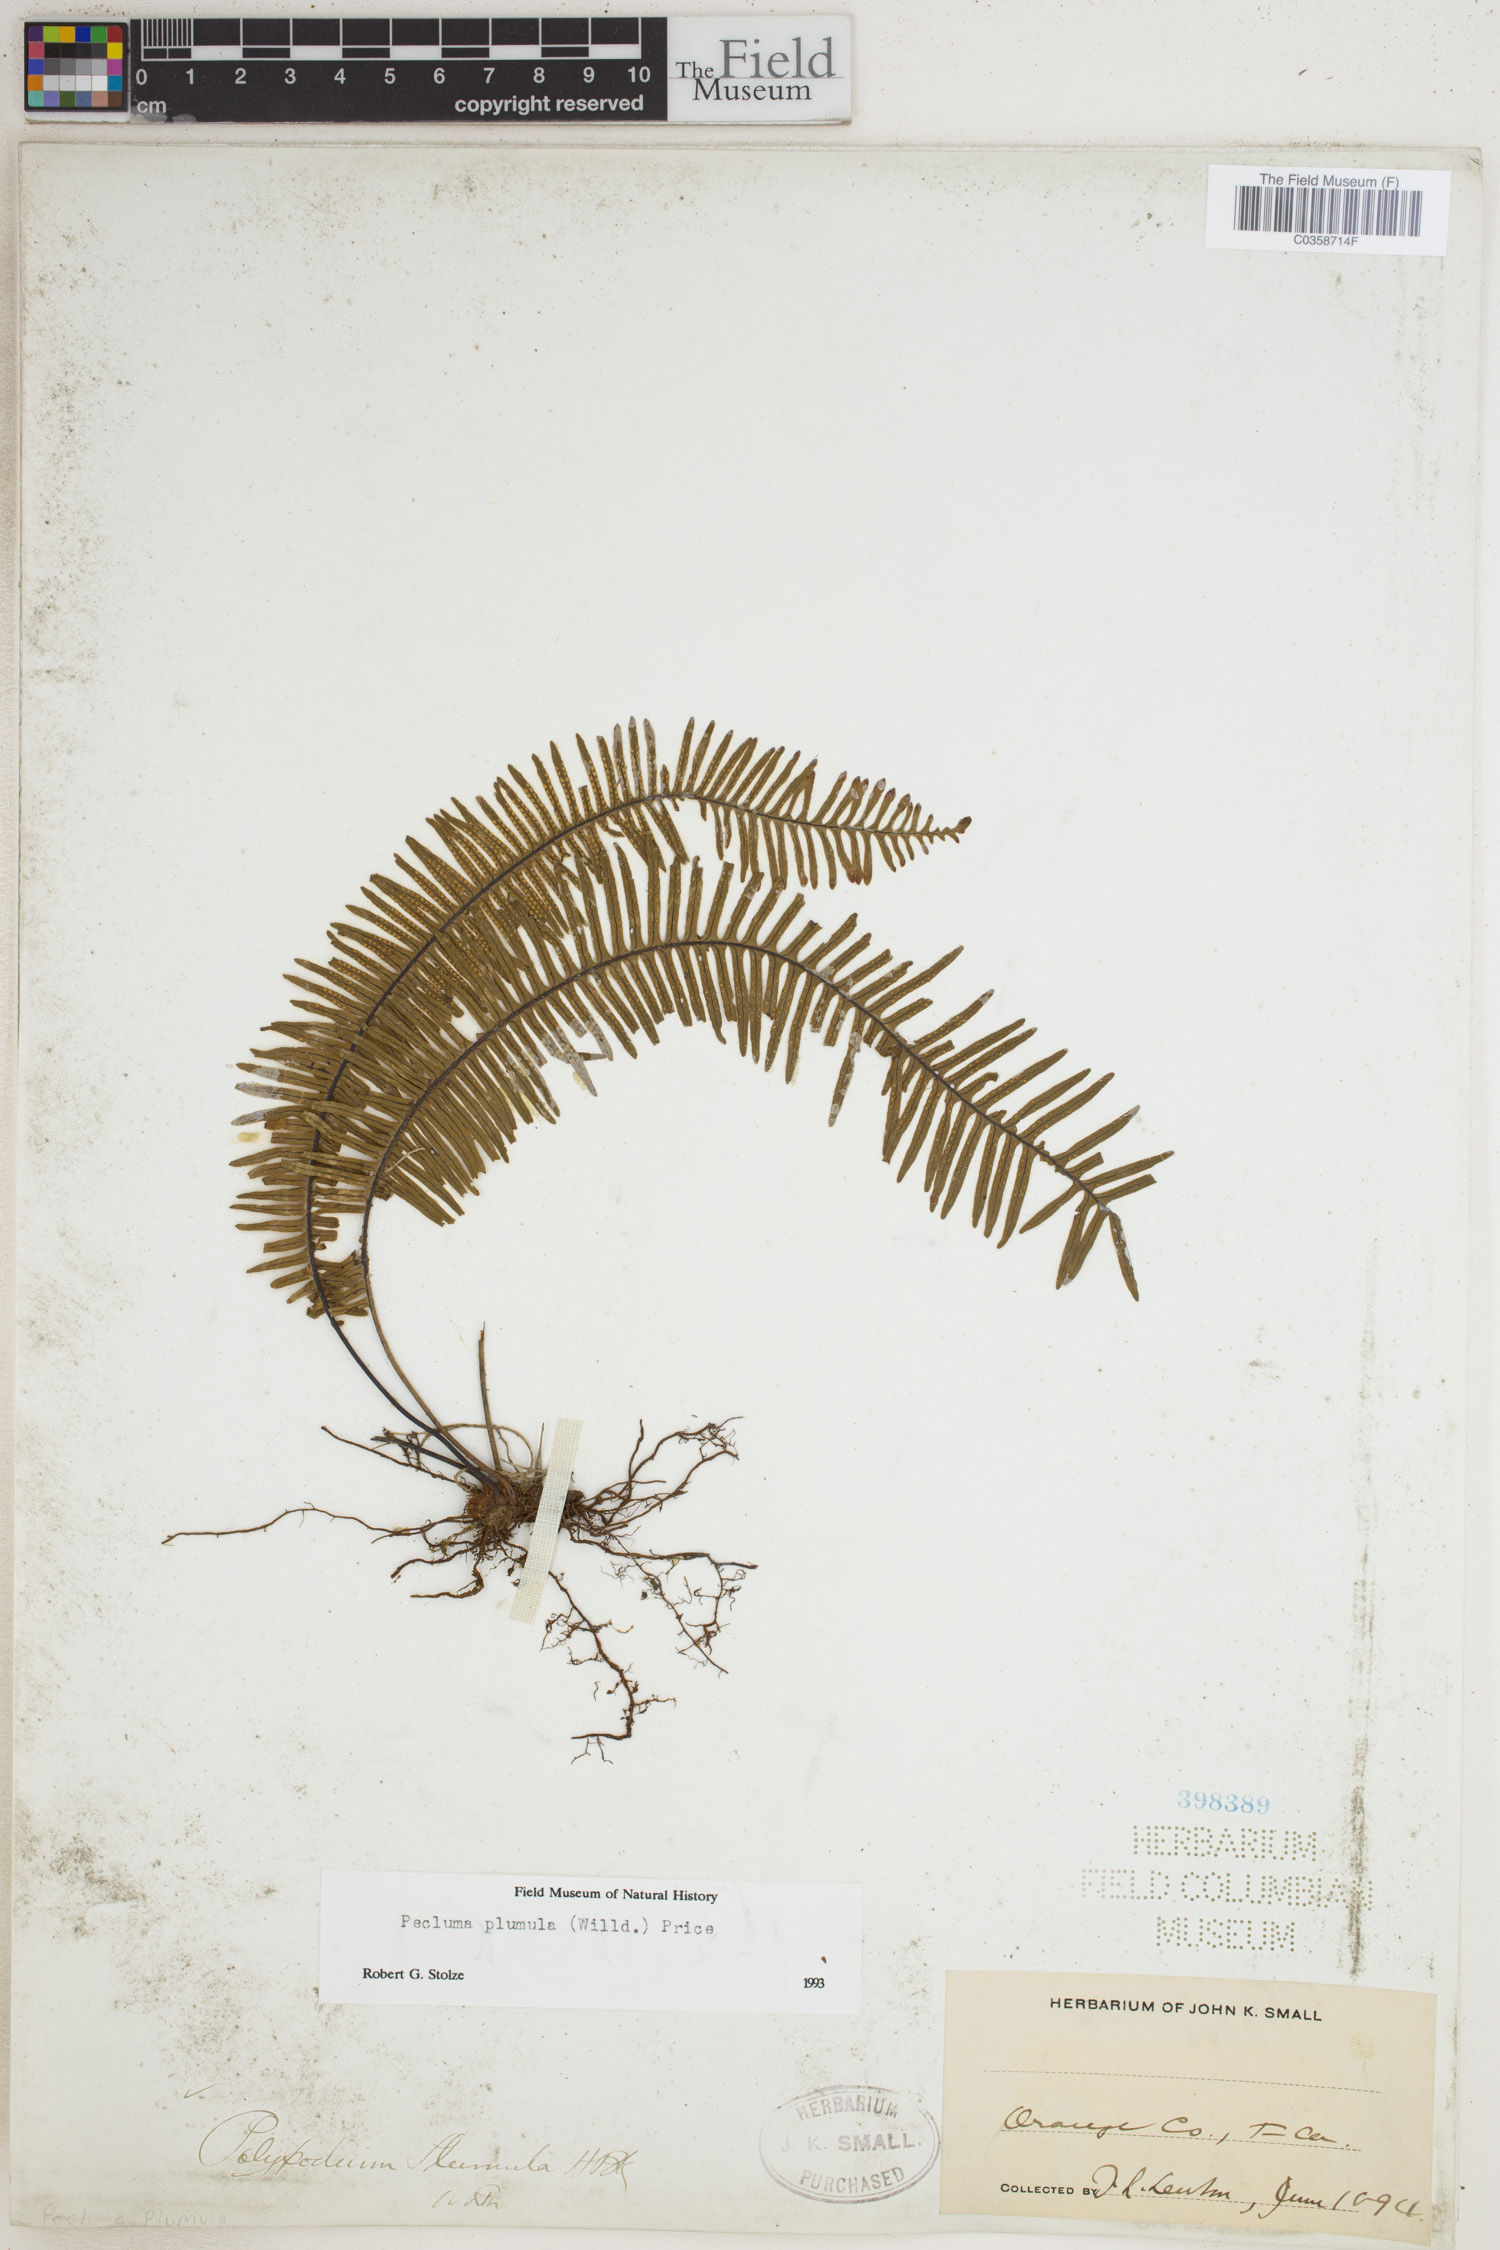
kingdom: Plantae
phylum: Tracheophyta
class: Polypodiopsida
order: Polypodiales
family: Polypodiaceae
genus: Pecluma
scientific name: Pecluma plumula
